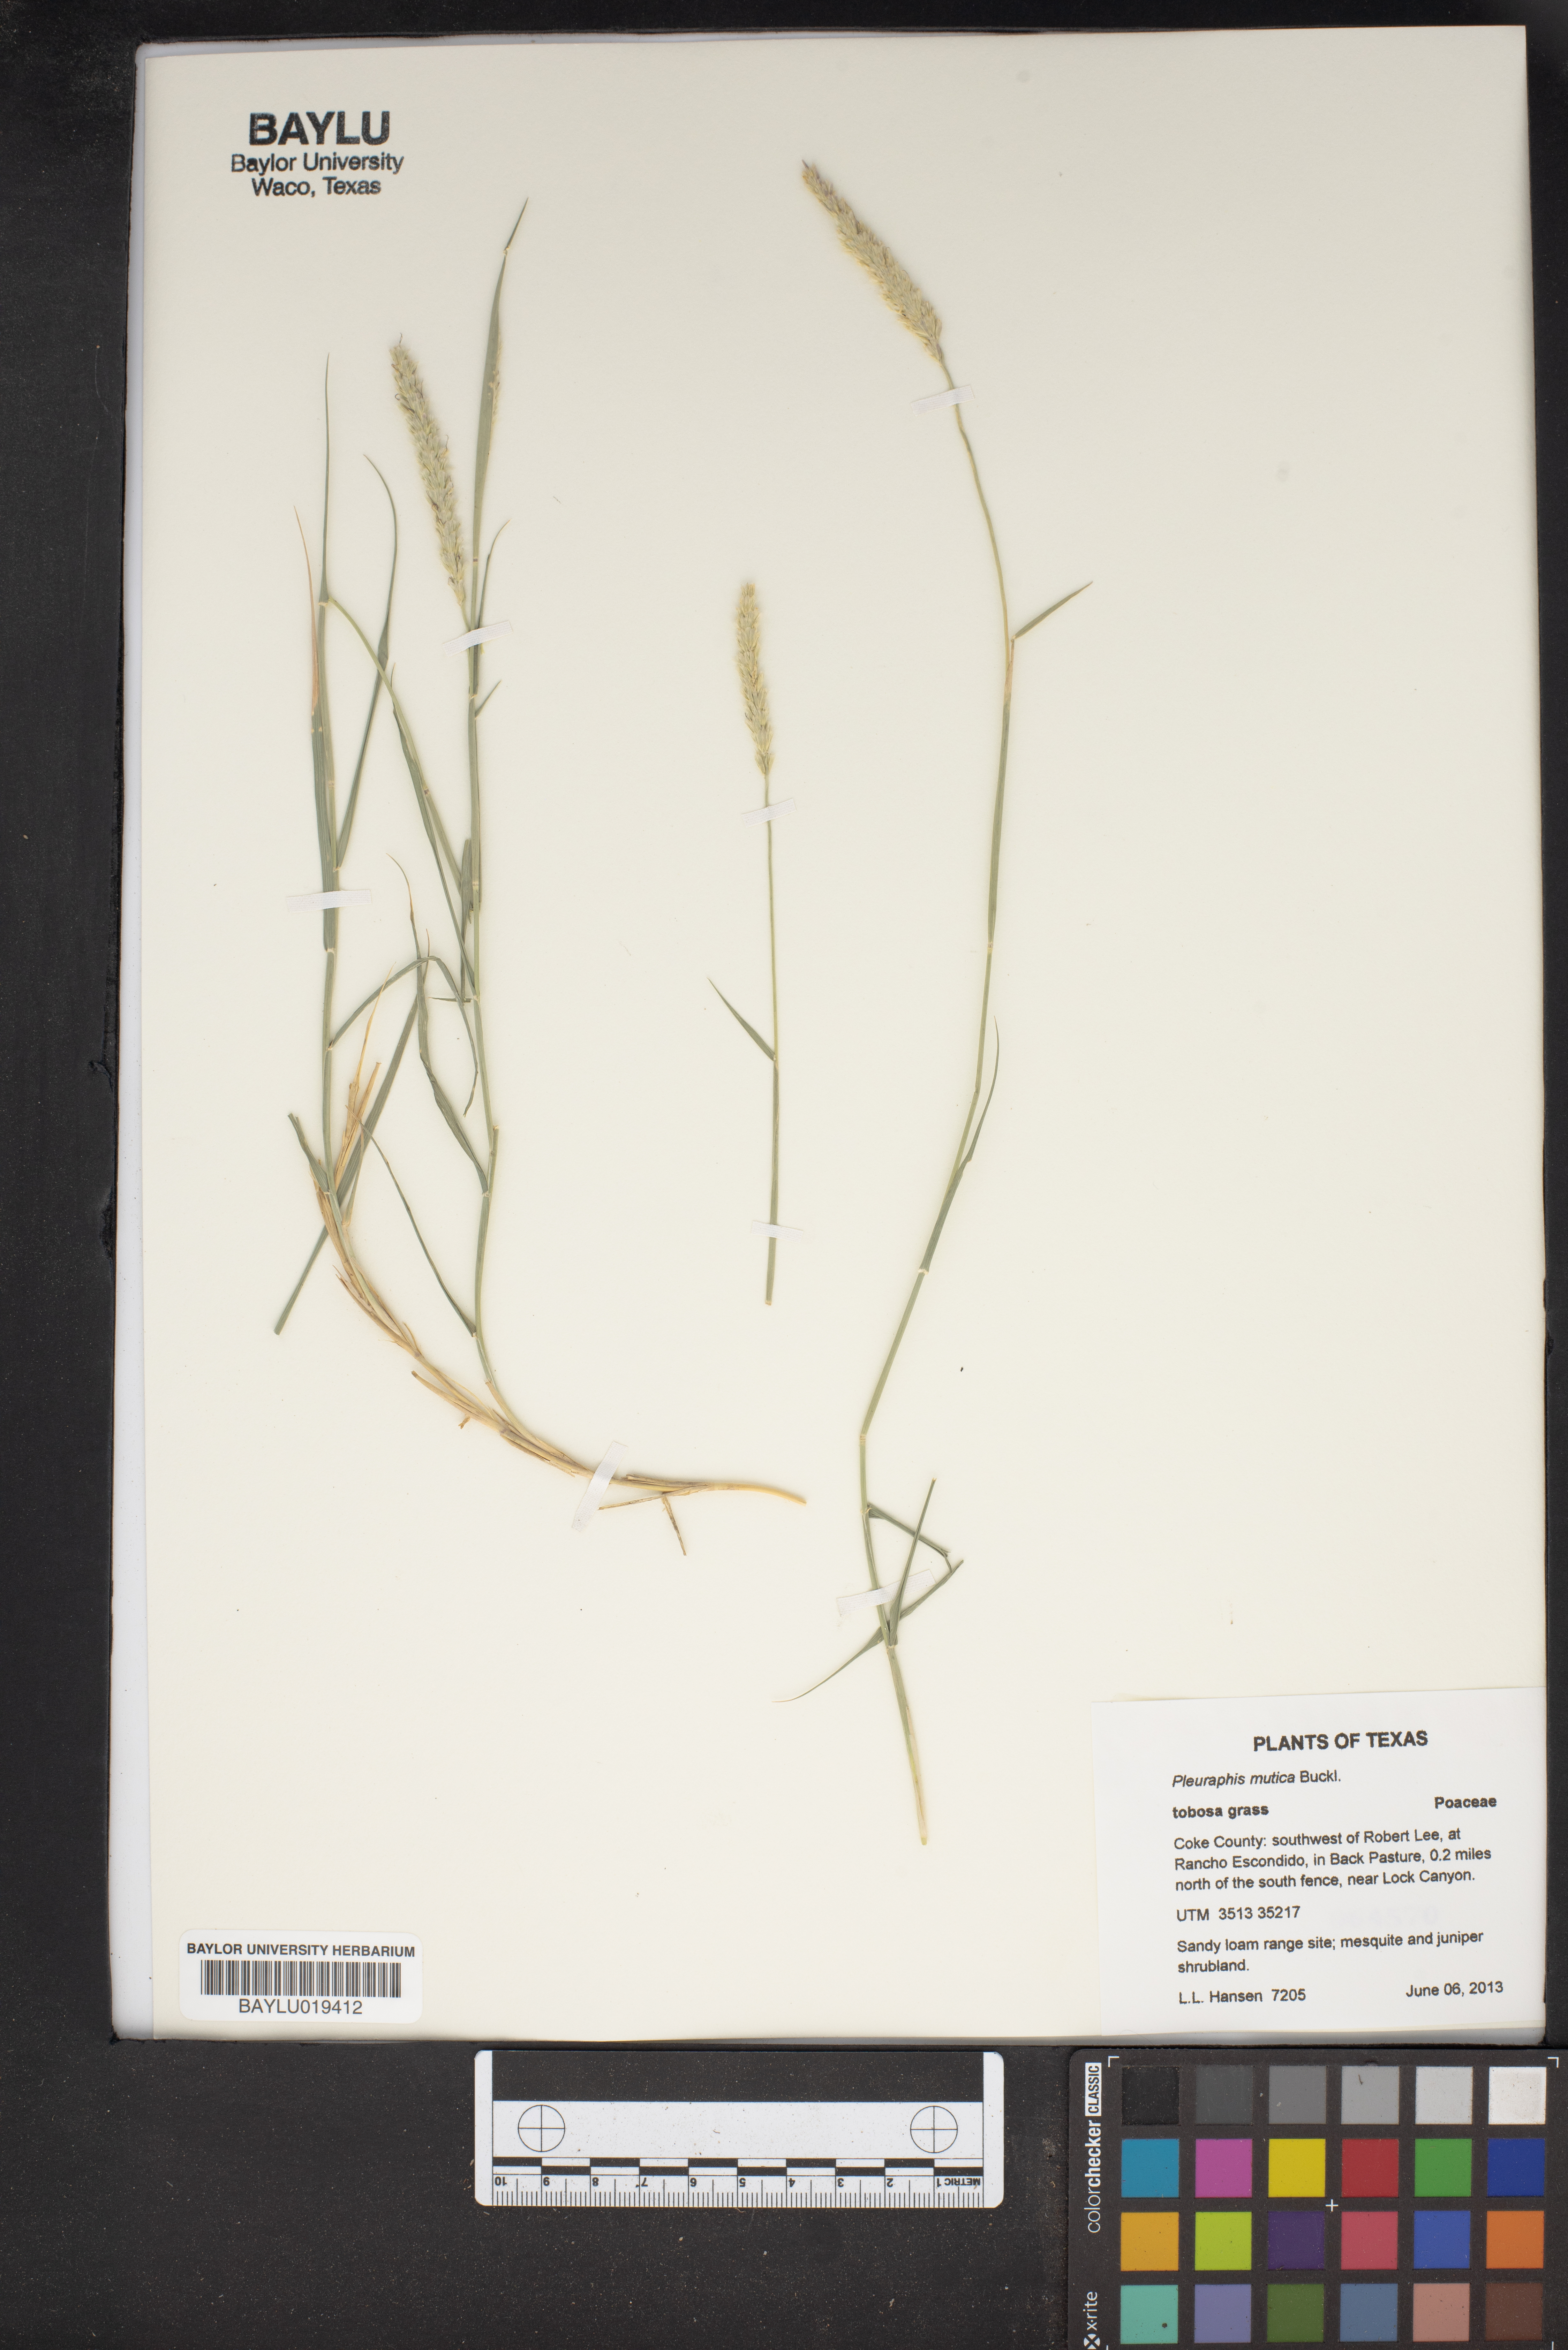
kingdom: Plantae
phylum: Tracheophyta
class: Liliopsida
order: Poales
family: Poaceae
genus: Hilaria
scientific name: Hilaria mutica
